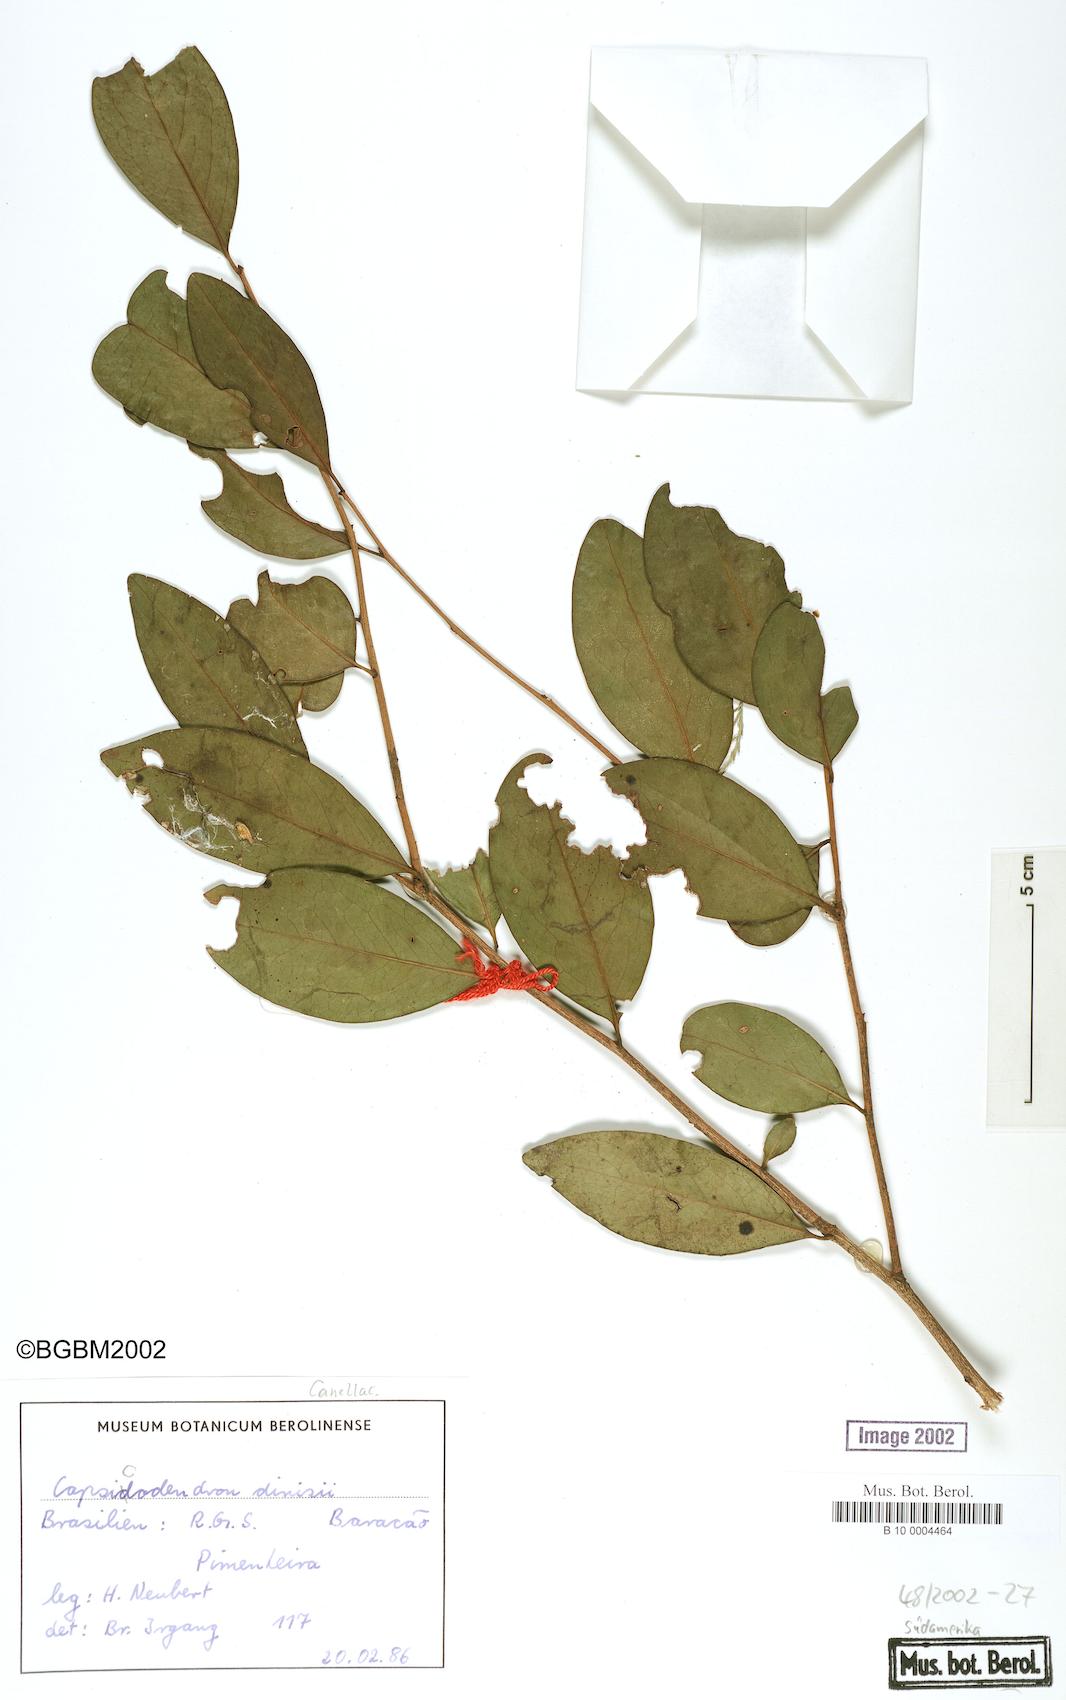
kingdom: Plantae
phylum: Tracheophyta
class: Magnoliopsida
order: Canellales
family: Canellaceae
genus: Cinnamodendron
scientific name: Cinnamodendron dinisii
